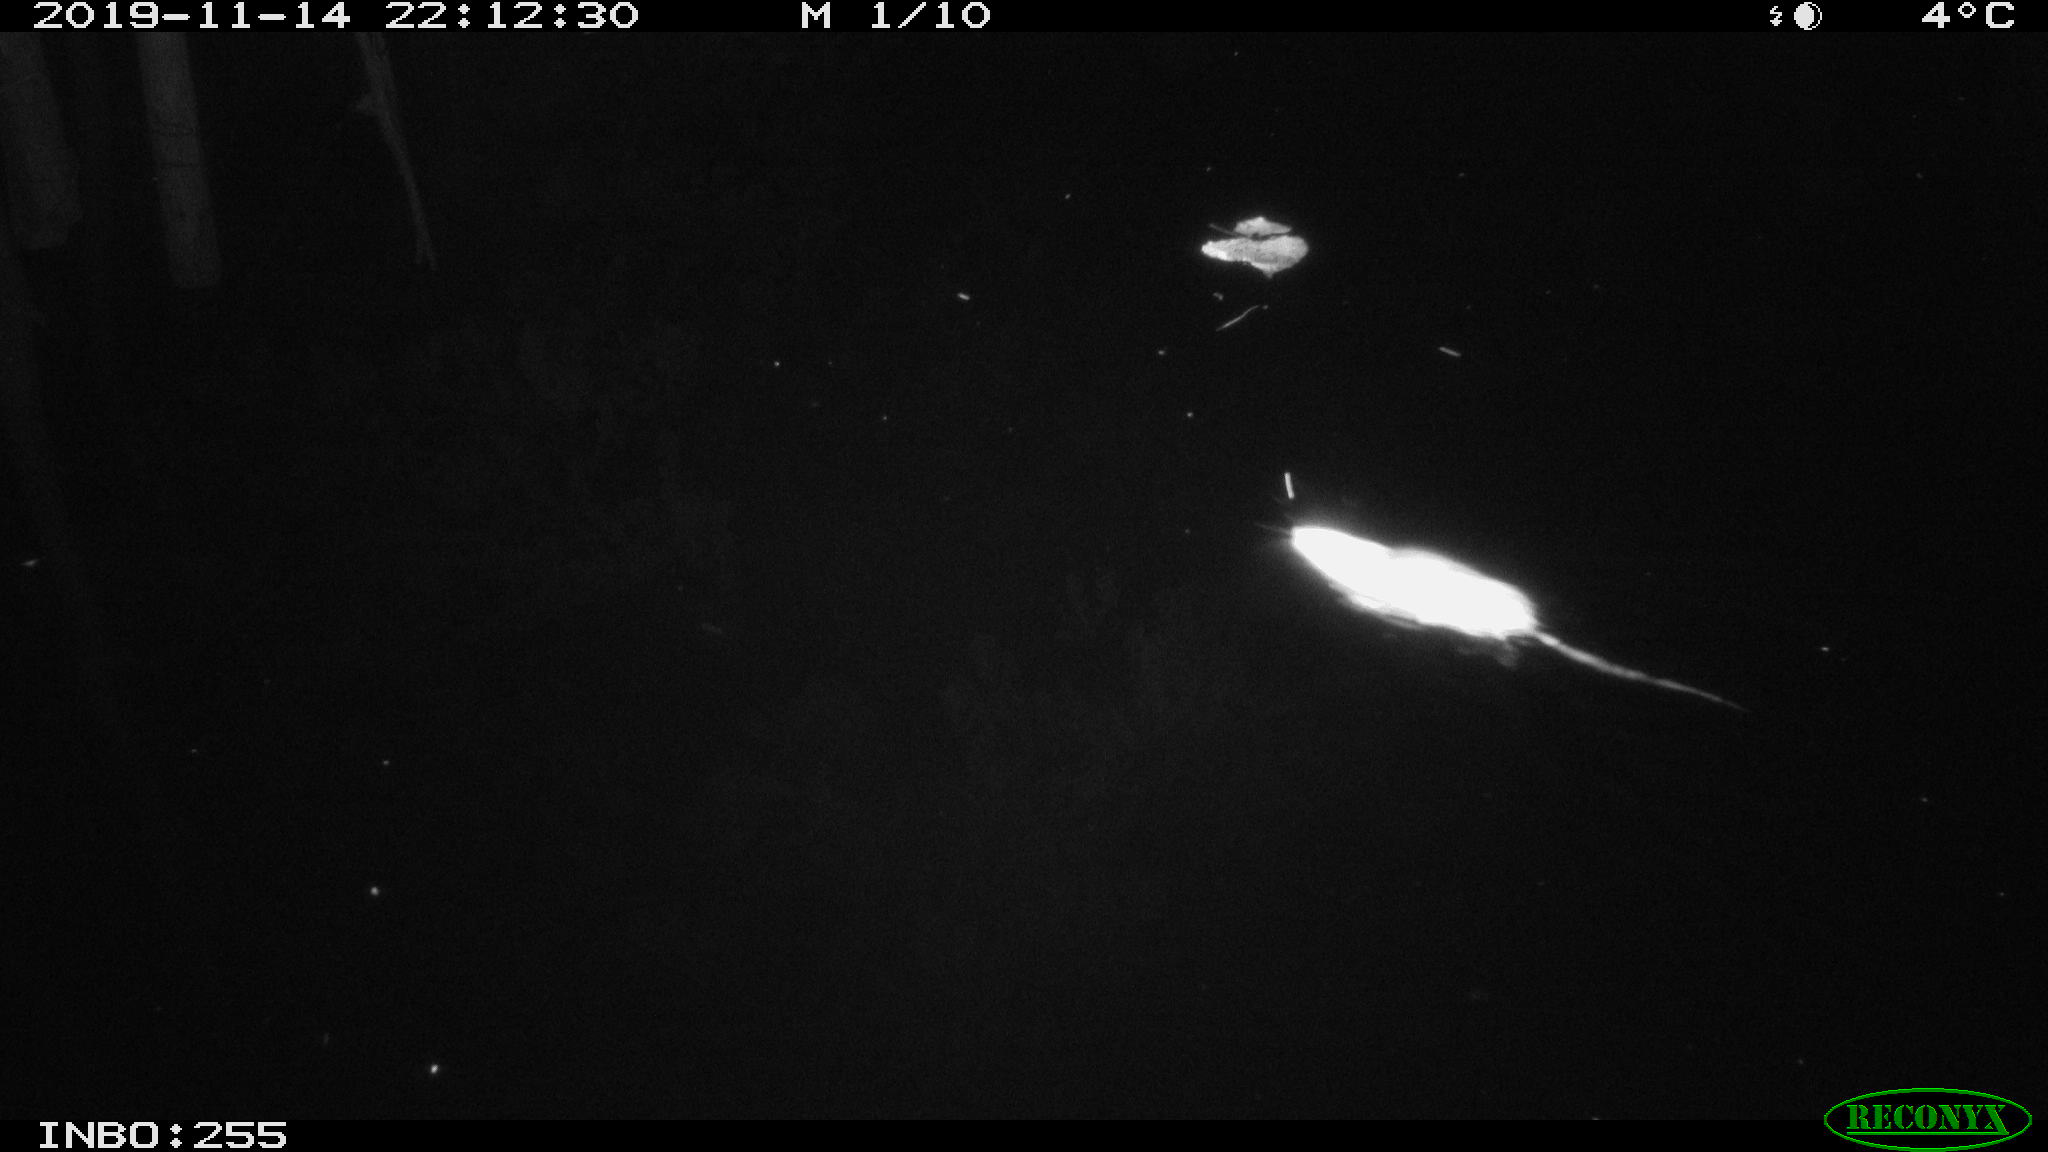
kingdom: Animalia
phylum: Chordata
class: Mammalia
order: Rodentia
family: Muridae
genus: Rattus
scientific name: Rattus norvegicus
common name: Brown rat
